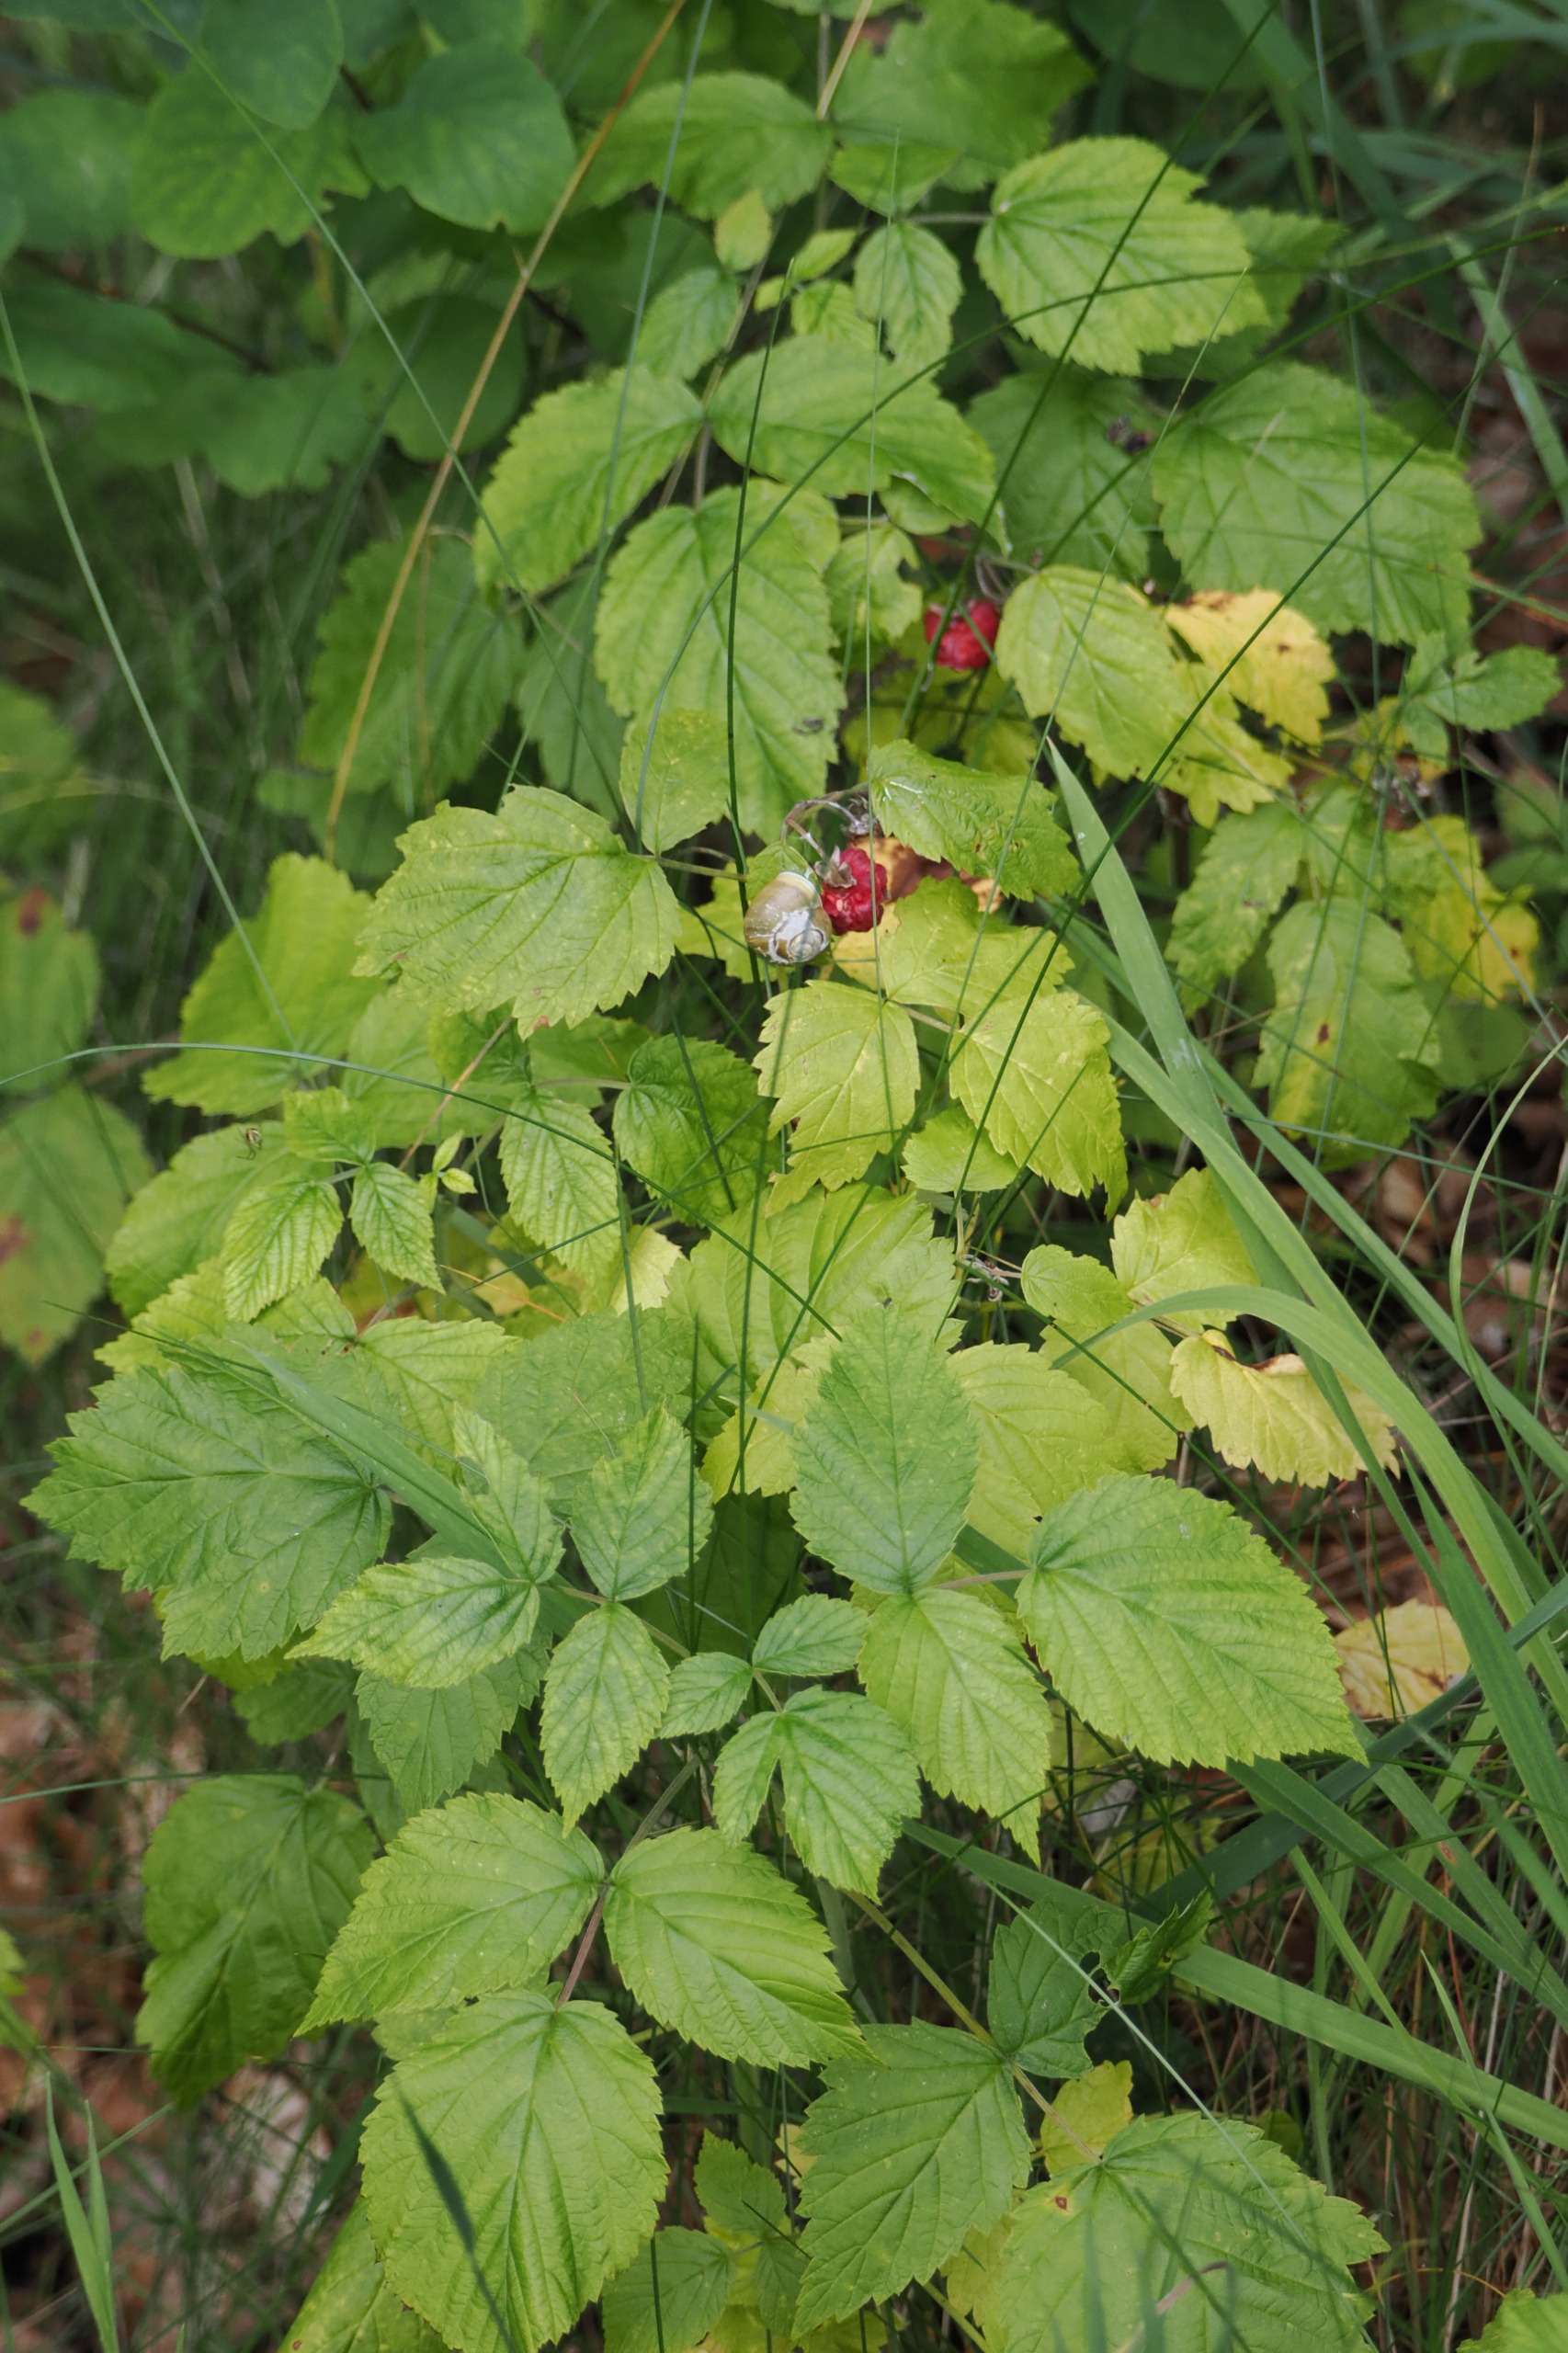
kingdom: Plantae
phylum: Tracheophyta
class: Magnoliopsida
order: Rosales
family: Rosaceae
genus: Rubus
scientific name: Rubus idaeus
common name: Hindbær
